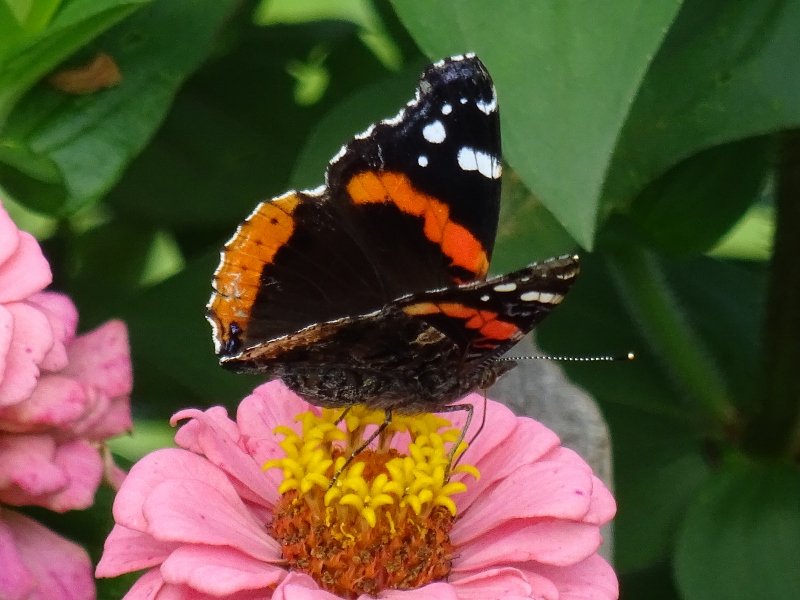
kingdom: Animalia
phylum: Arthropoda
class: Insecta
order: Lepidoptera
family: Nymphalidae
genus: Vanessa
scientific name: Vanessa atalanta
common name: Red Admiral
